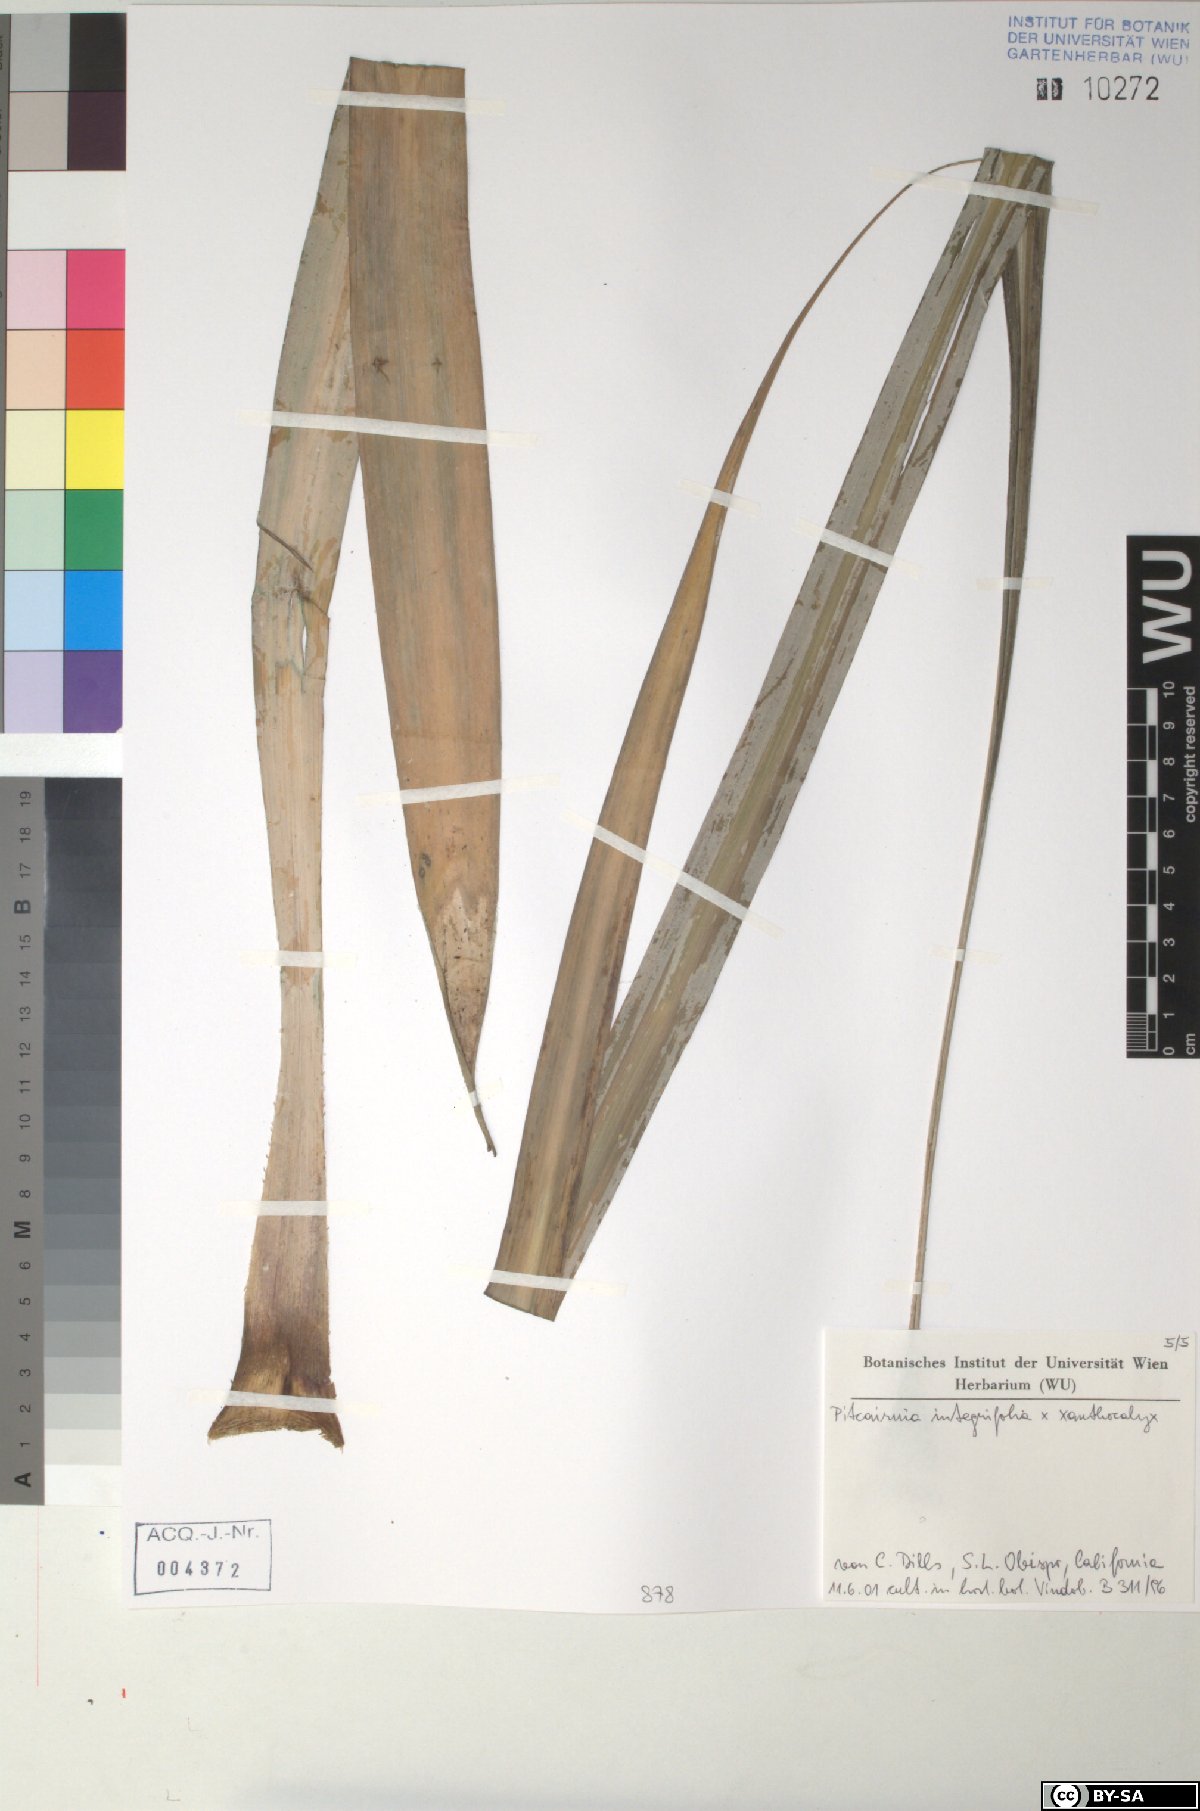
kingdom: Plantae
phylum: Tracheophyta
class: Liliopsida
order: Poales
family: Bromeliaceae
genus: Pitcairnia
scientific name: Pitcairnia integrifolia
